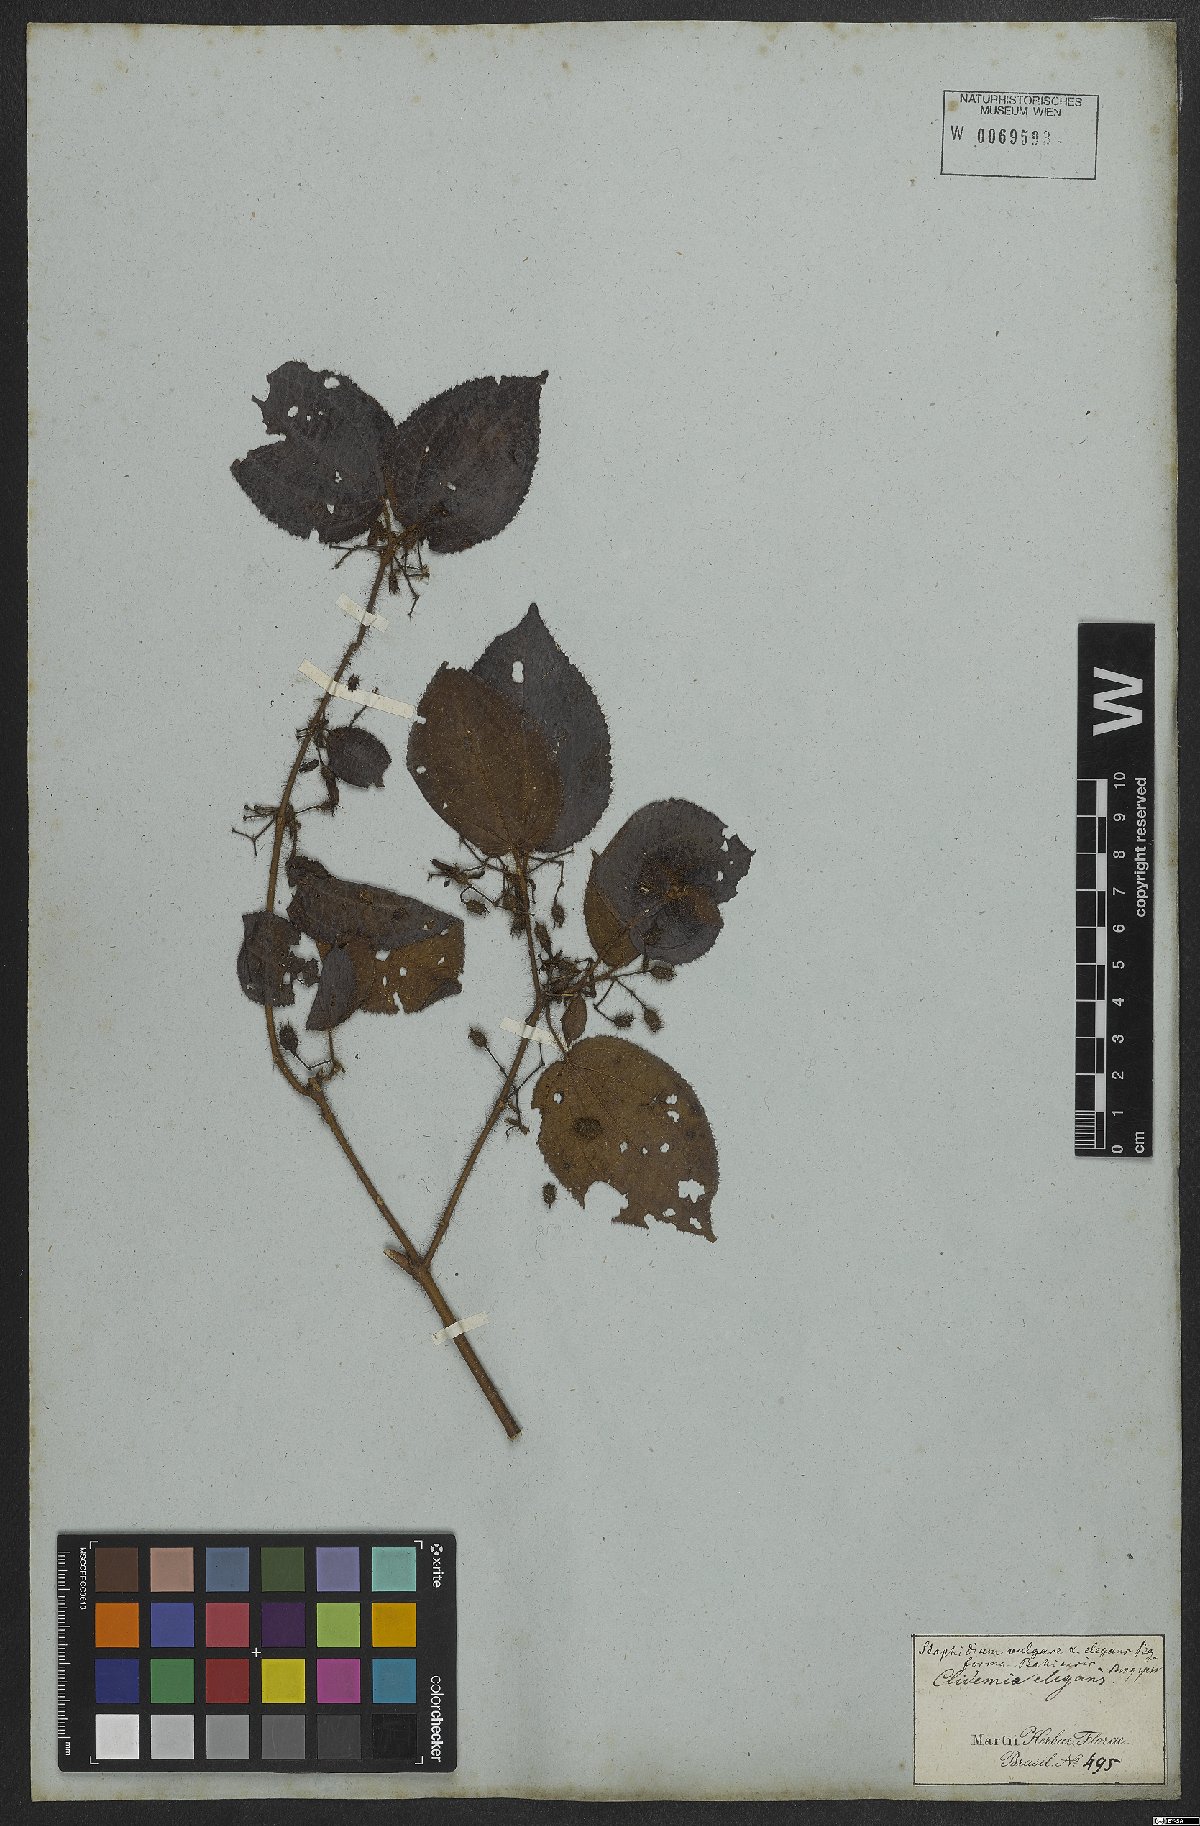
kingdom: Plantae
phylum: Tracheophyta
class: Magnoliopsida
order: Myrtales
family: Melastomataceae
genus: Miconia
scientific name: Miconia crenata
